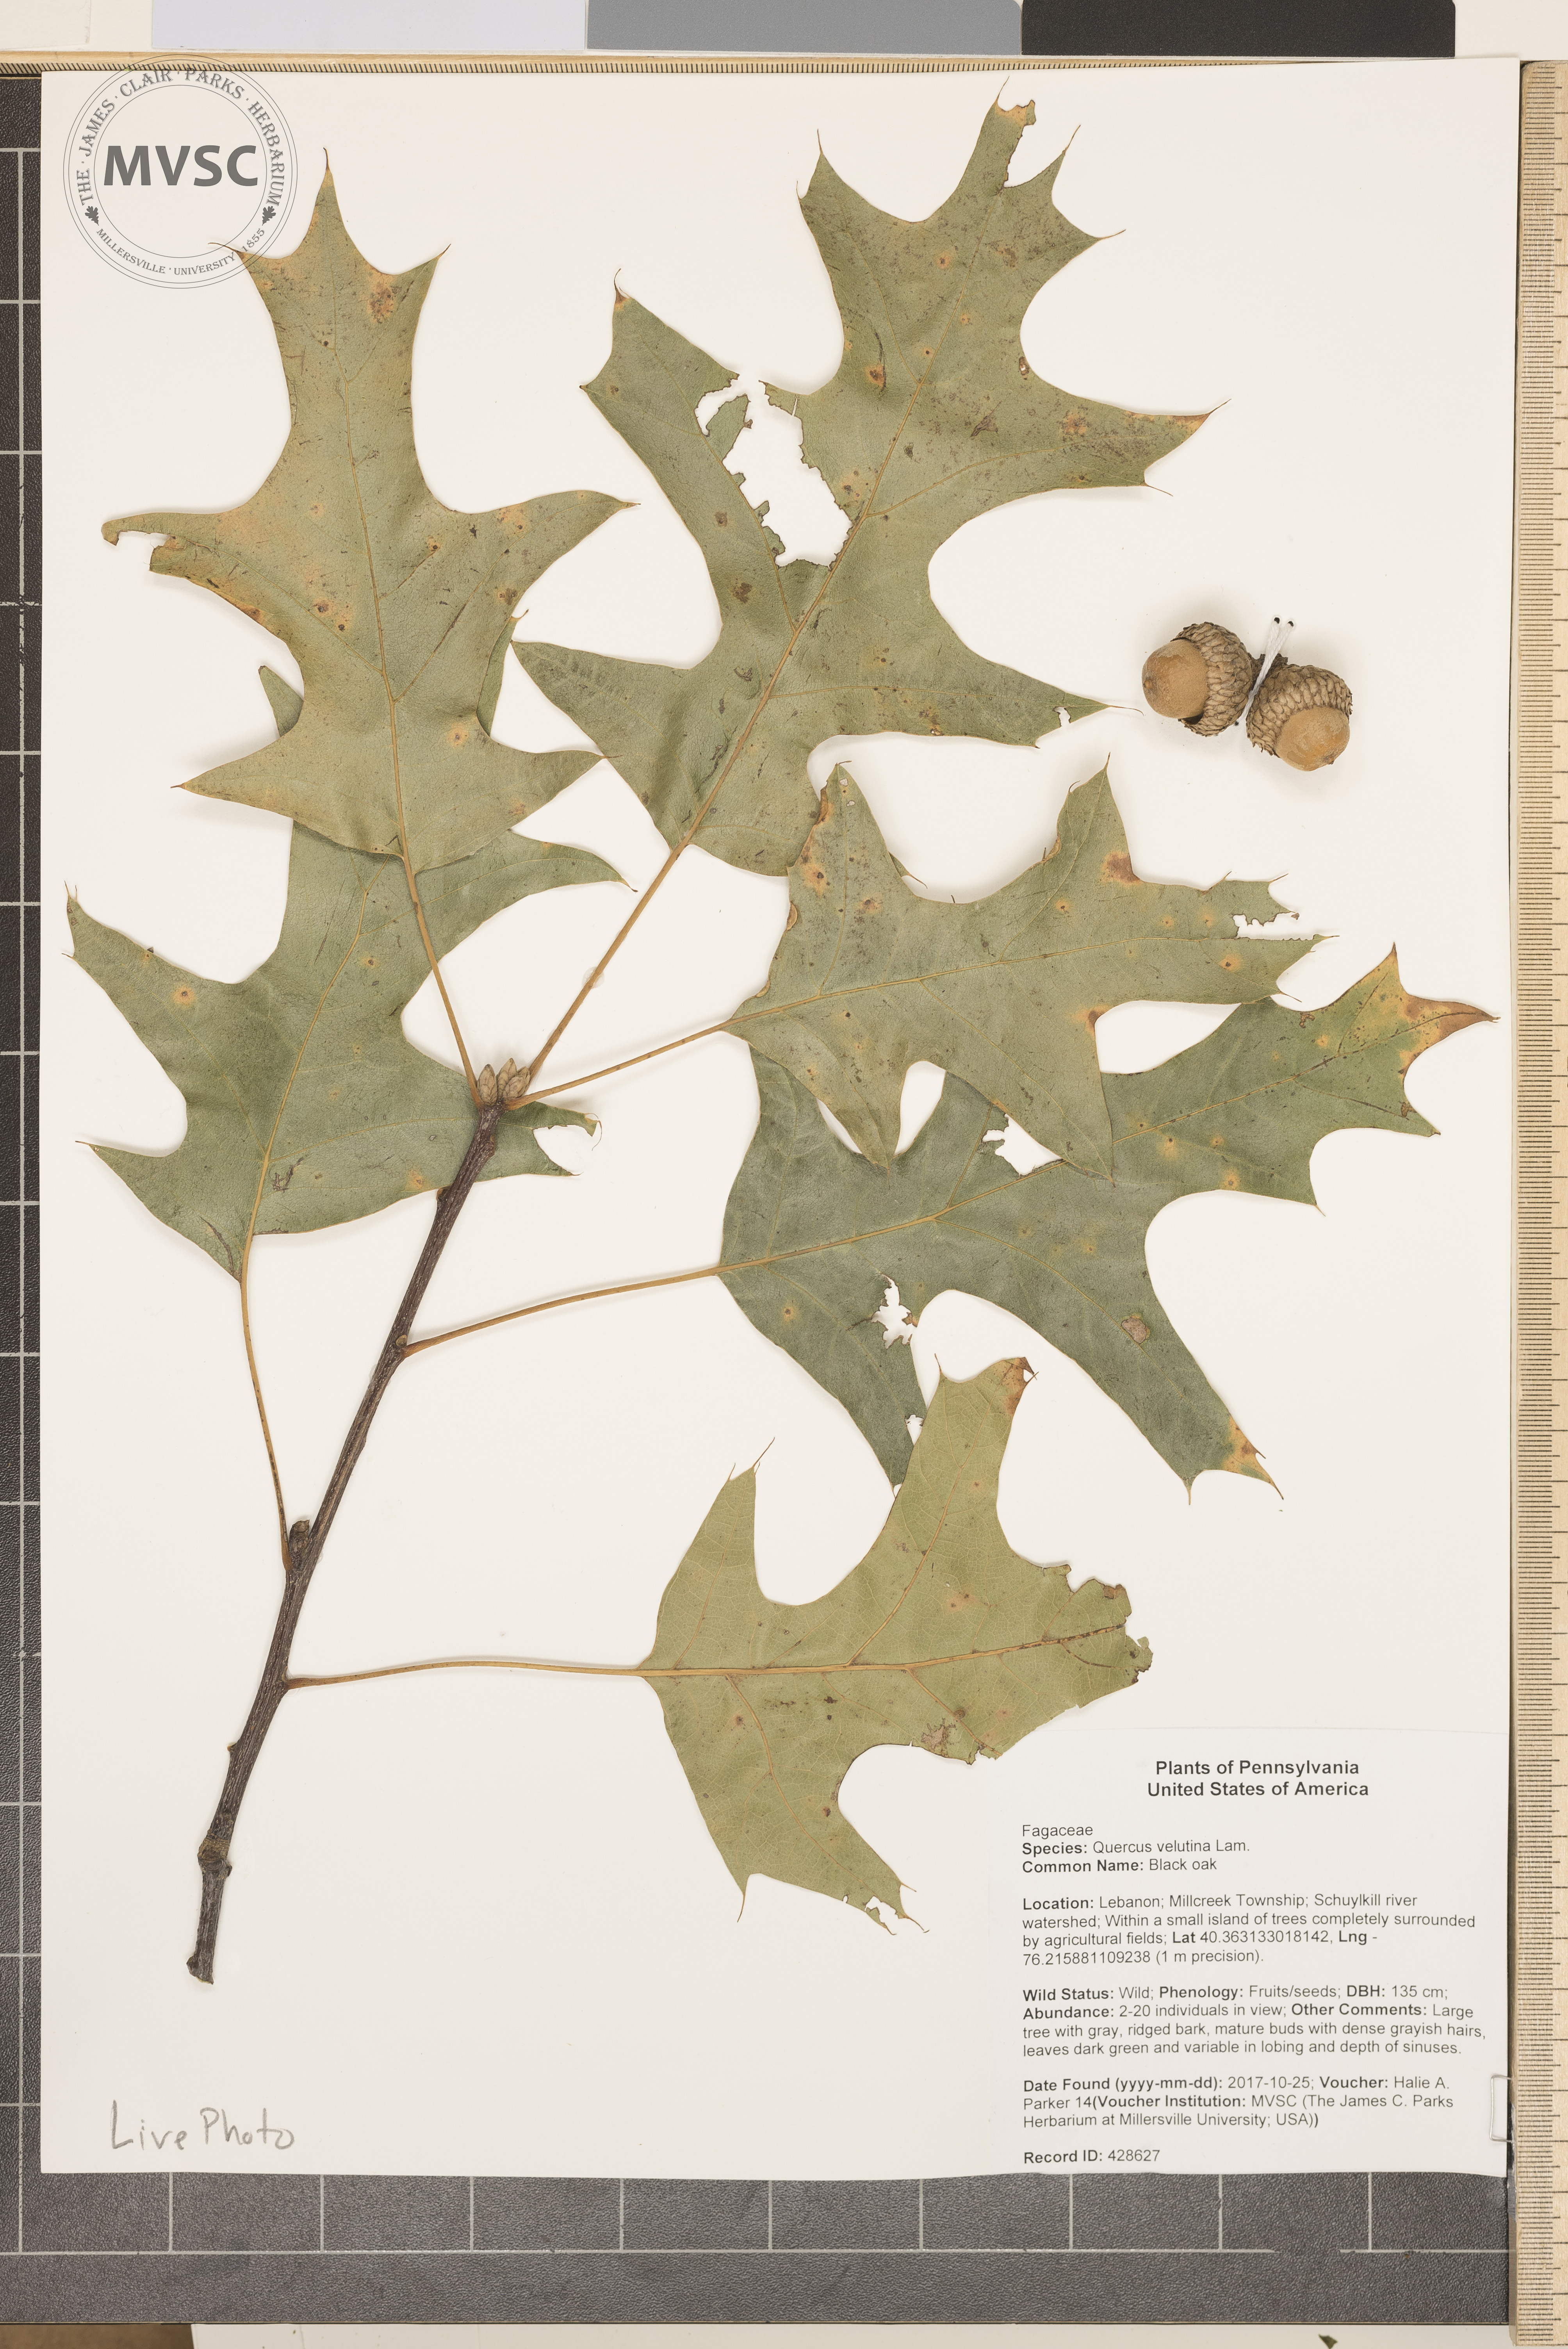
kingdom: Plantae
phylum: Tracheophyta
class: Magnoliopsida
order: Fagales
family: Fagaceae
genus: Quercus
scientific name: Quercus velutina
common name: Black oak
